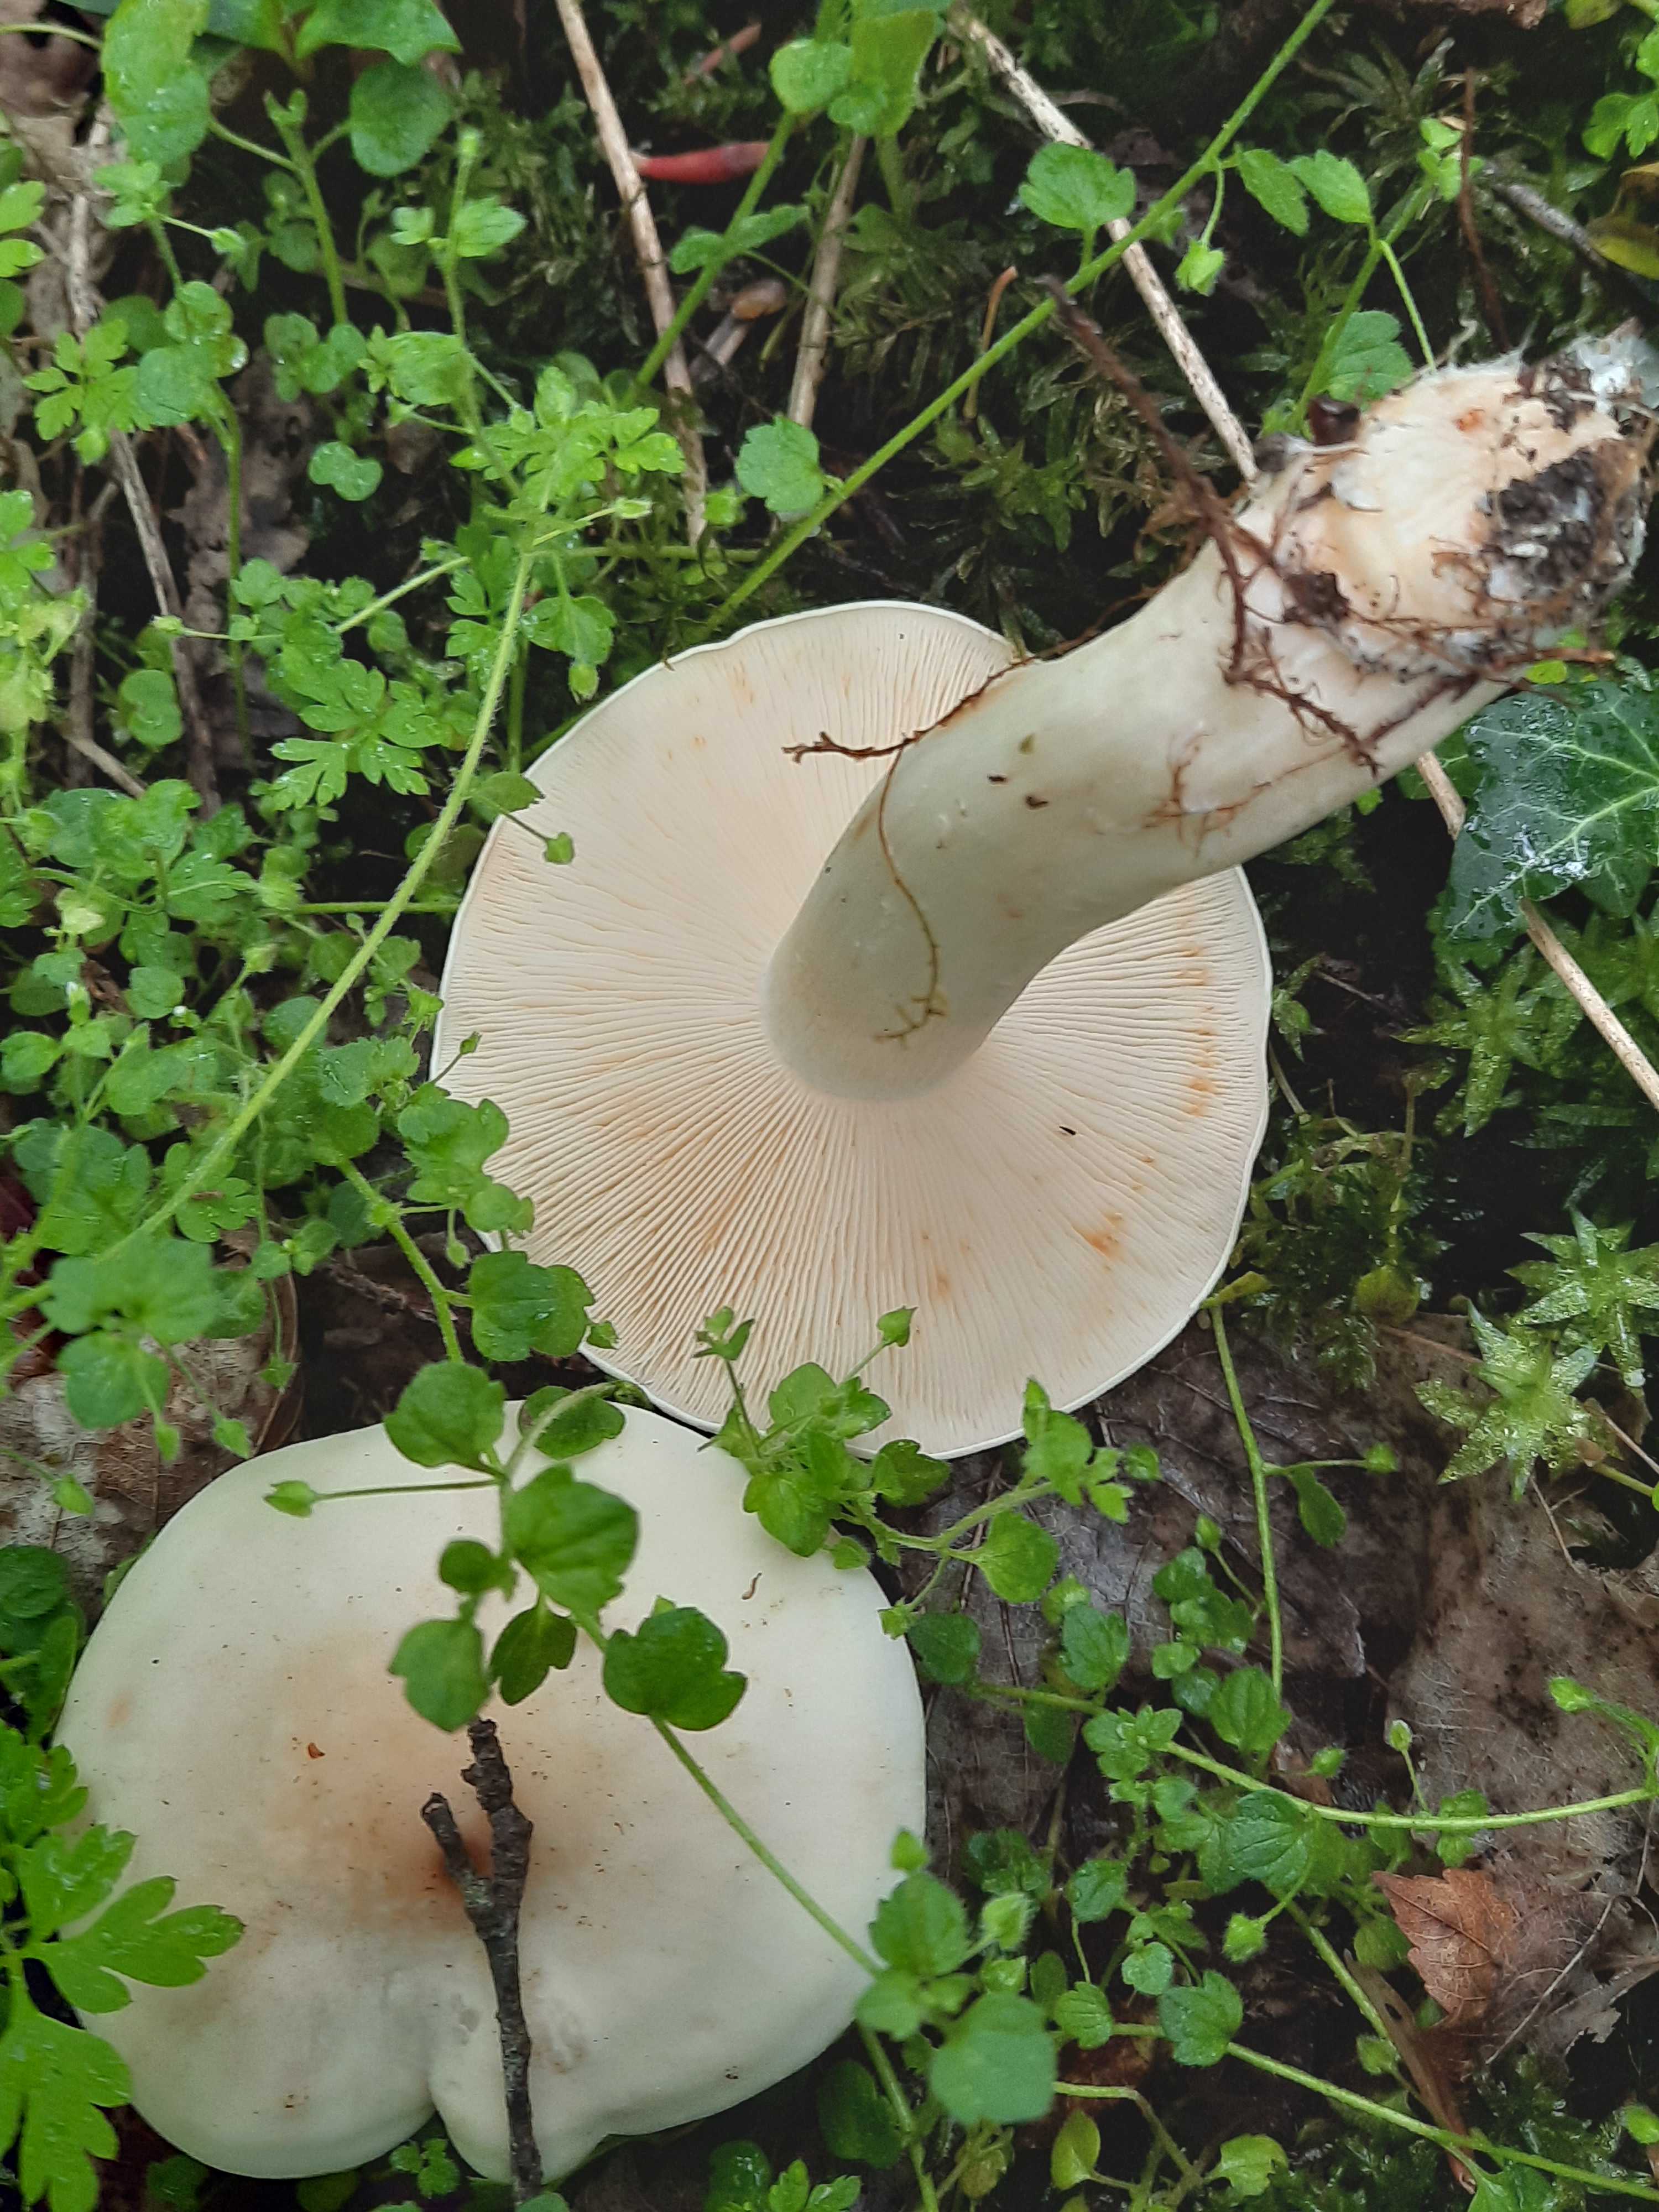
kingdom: Fungi
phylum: Basidiomycota
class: Agaricomycetes
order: Agaricales
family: Lyophyllaceae
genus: Calocybe
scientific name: Calocybe gambosa
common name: vårmusseron
